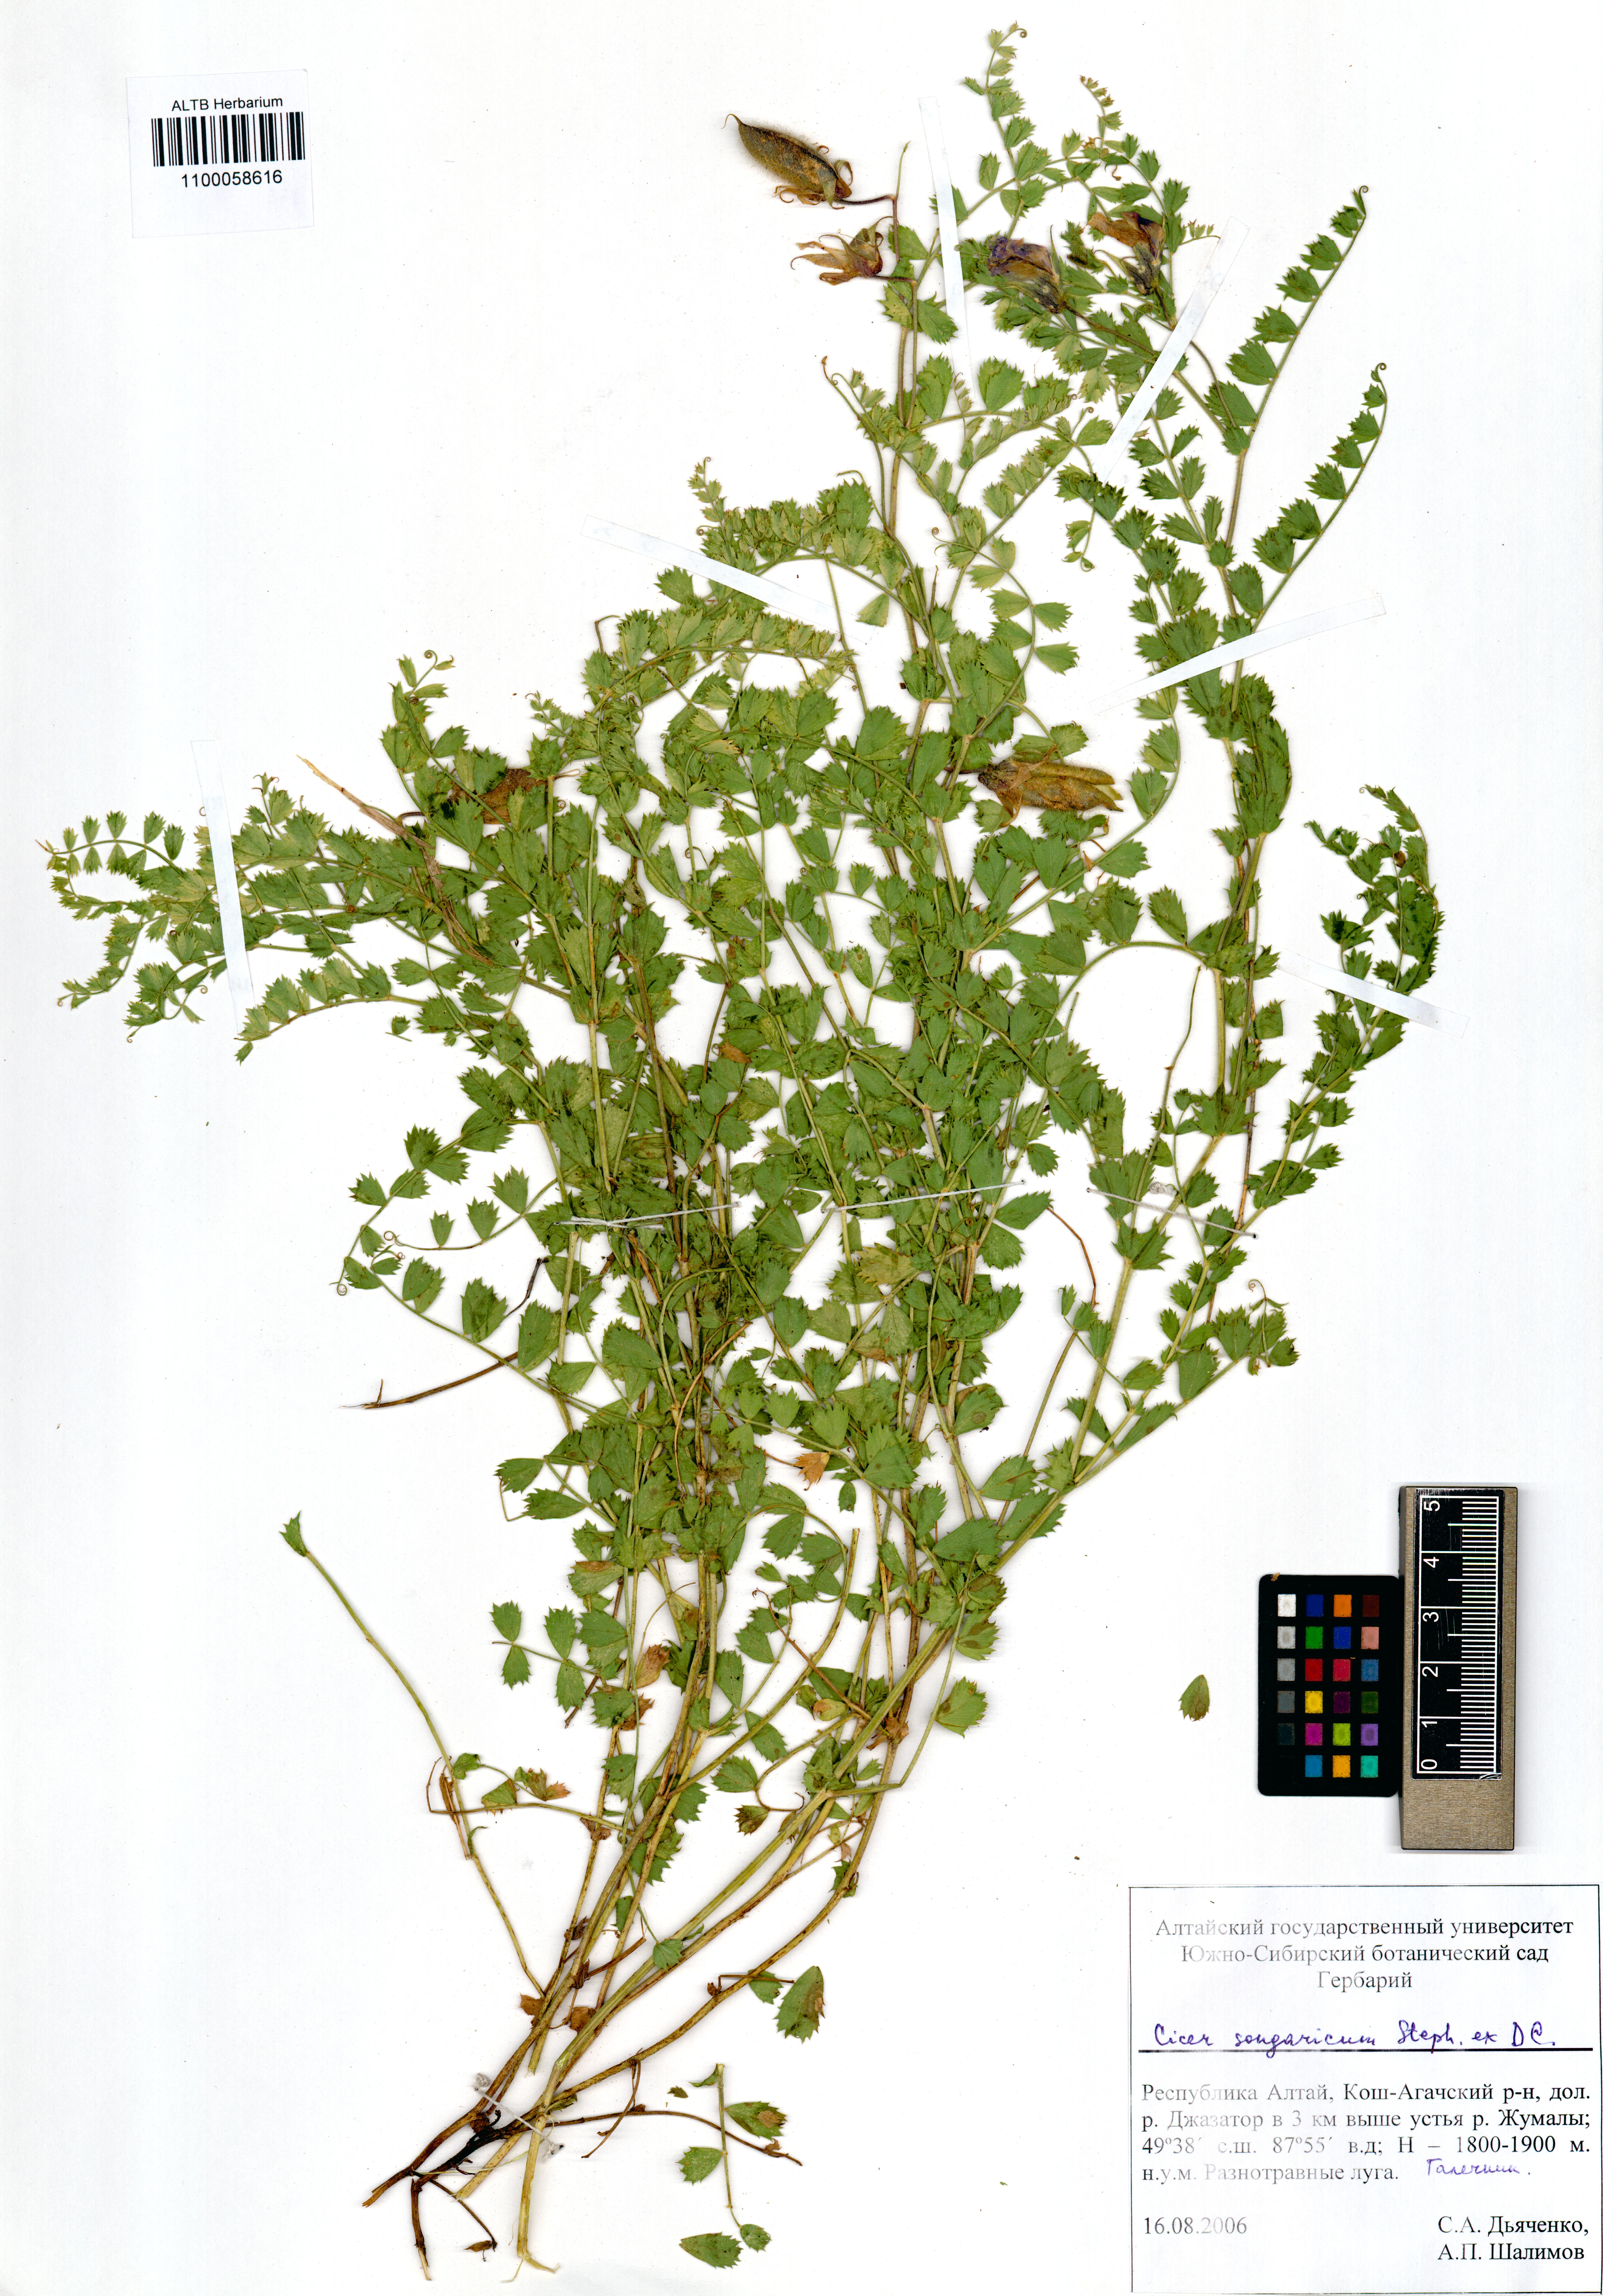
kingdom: Plantae
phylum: Tracheophyta
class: Magnoliopsida
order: Fabales
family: Fabaceae
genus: Cicer
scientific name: Cicer songaricum
